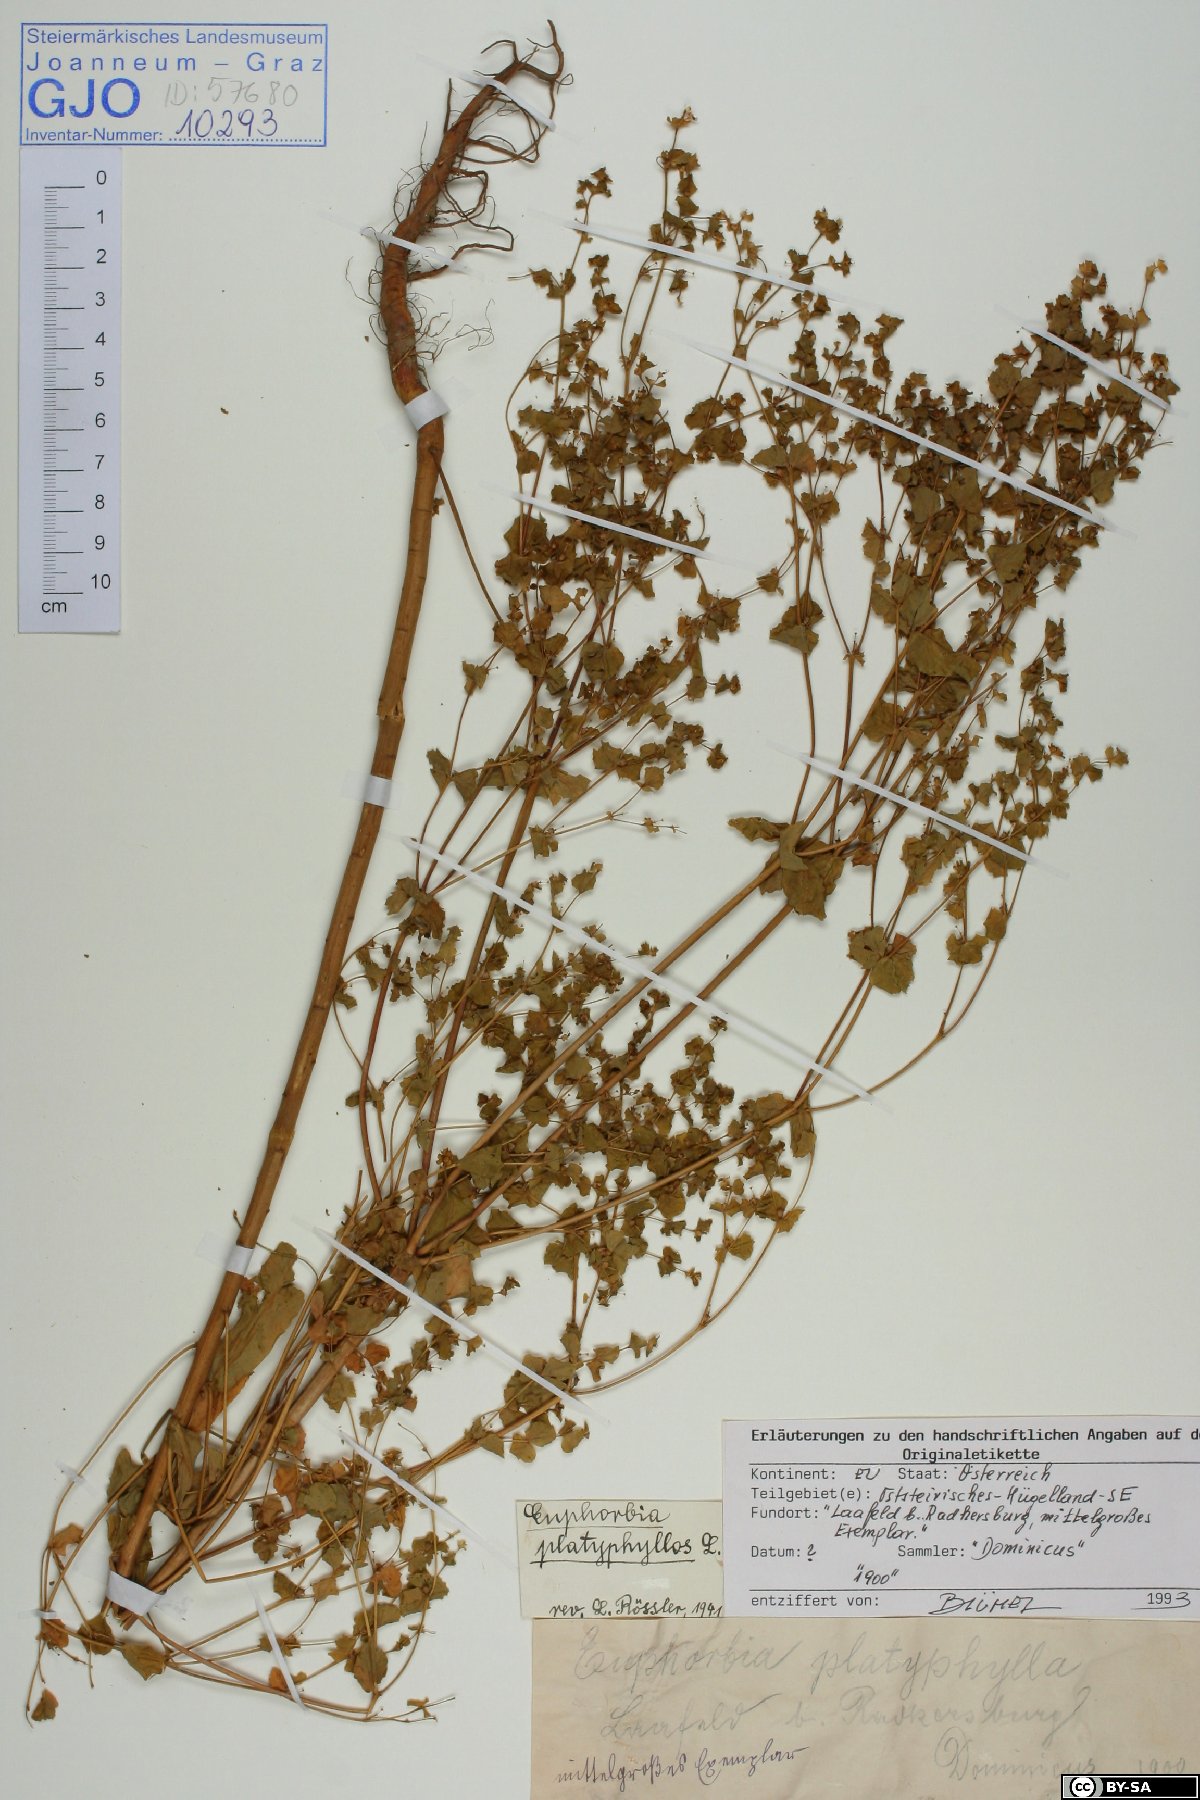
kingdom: Plantae
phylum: Tracheophyta
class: Magnoliopsida
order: Malpighiales
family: Euphorbiaceae
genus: Euphorbia
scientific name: Euphorbia platyphyllos
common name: Broad-leaved spurge
